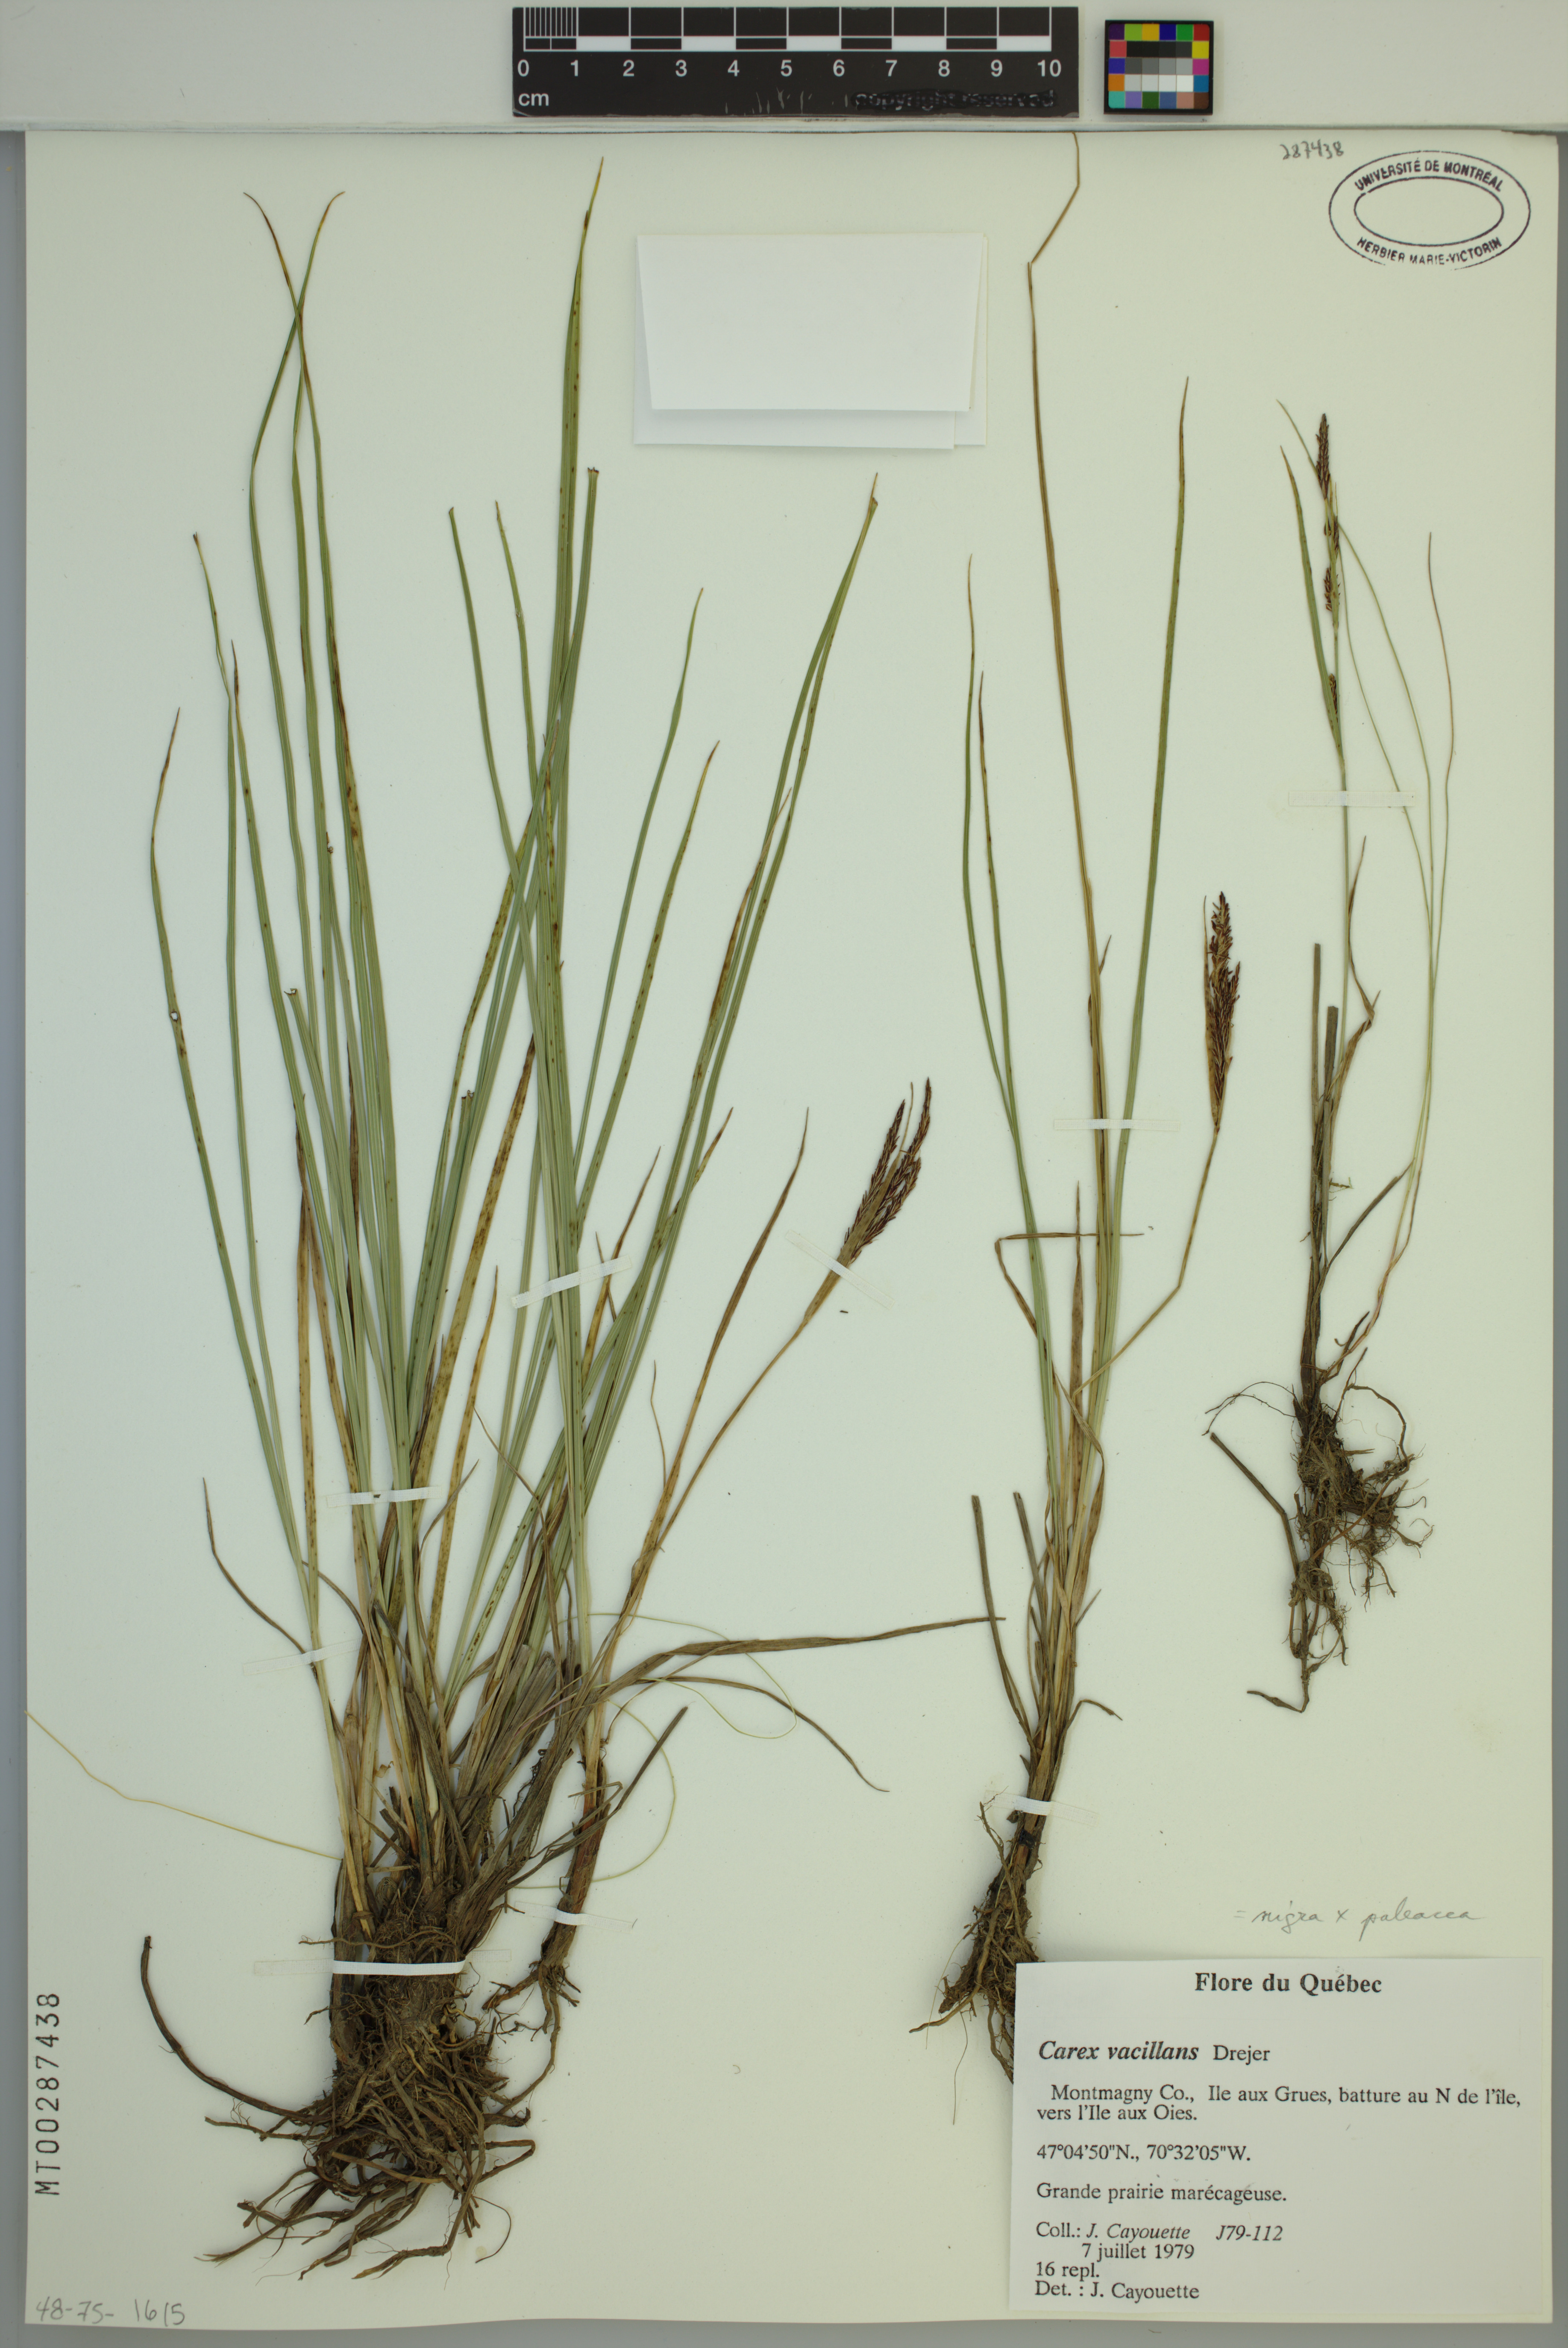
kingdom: Plantae
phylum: Tracheophyta
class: Liliopsida
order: Poales
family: Cyperaceae
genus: Carex
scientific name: Carex vacillans
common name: Sedge
